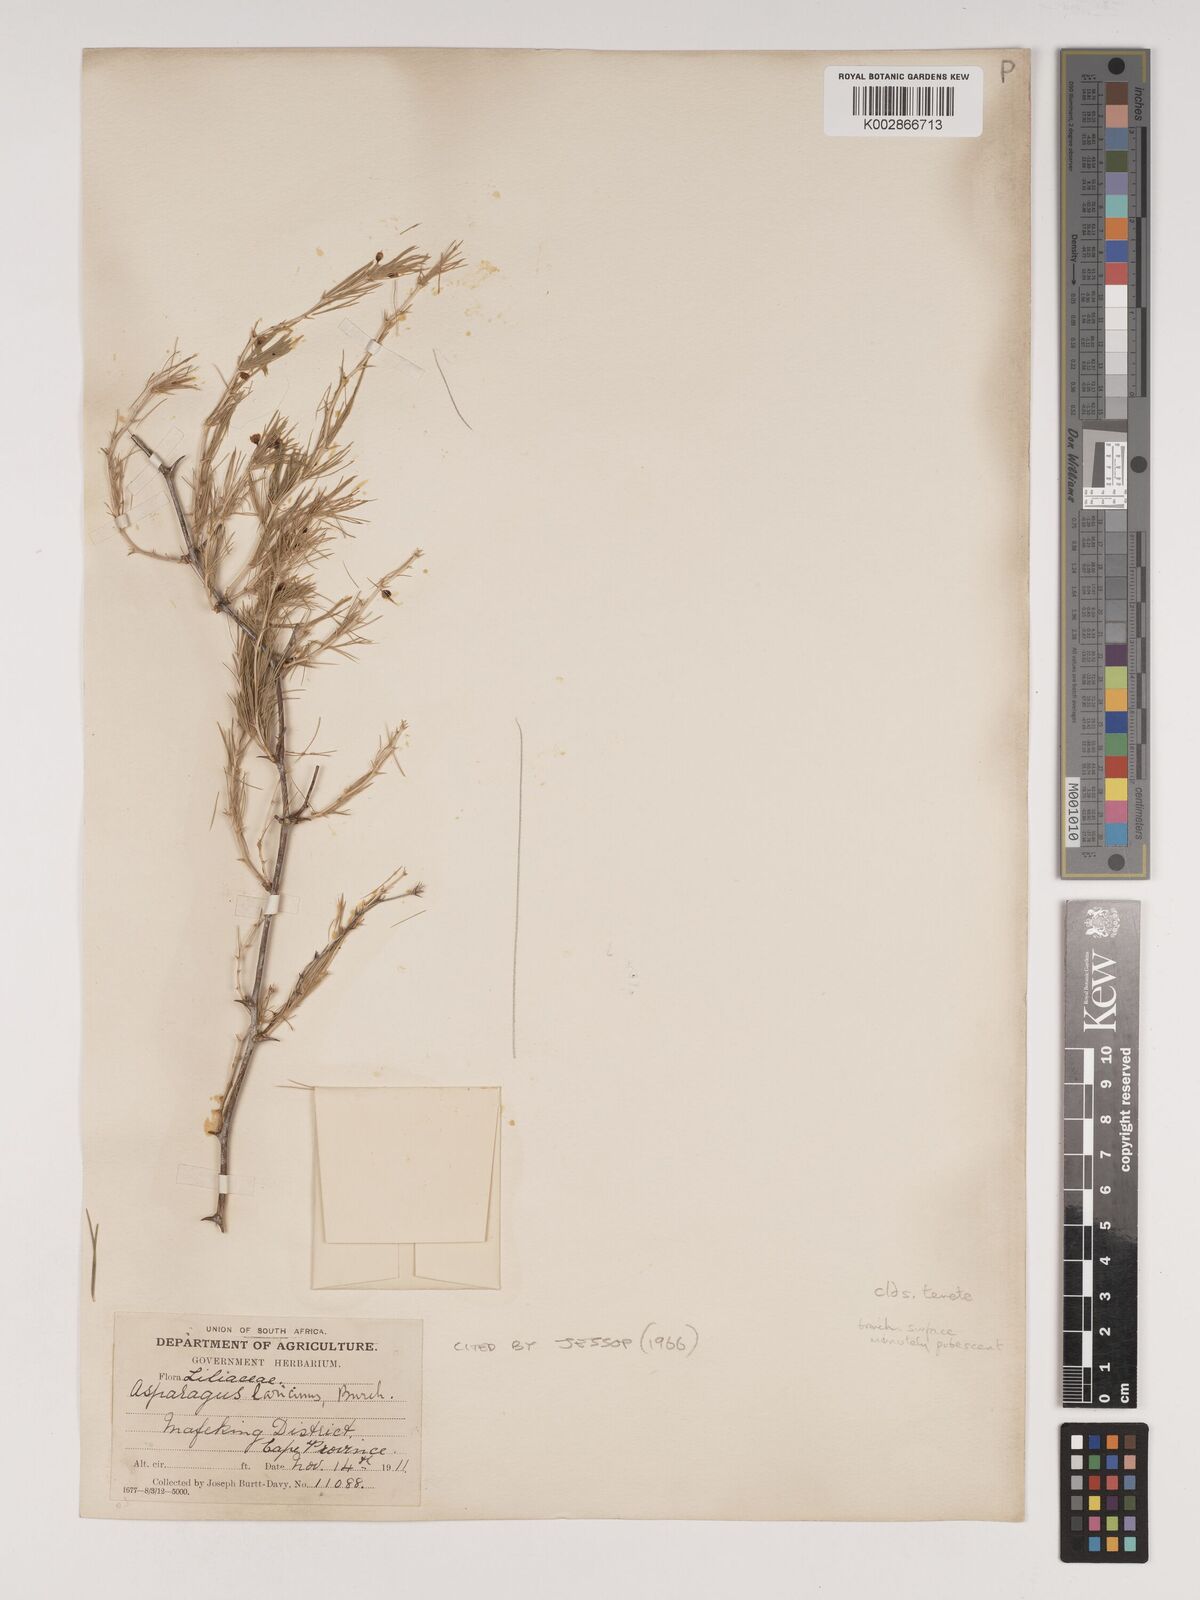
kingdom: Plantae
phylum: Tracheophyta
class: Liliopsida
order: Asparagales
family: Asparagaceae
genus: Asparagus
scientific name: Asparagus laricinus
